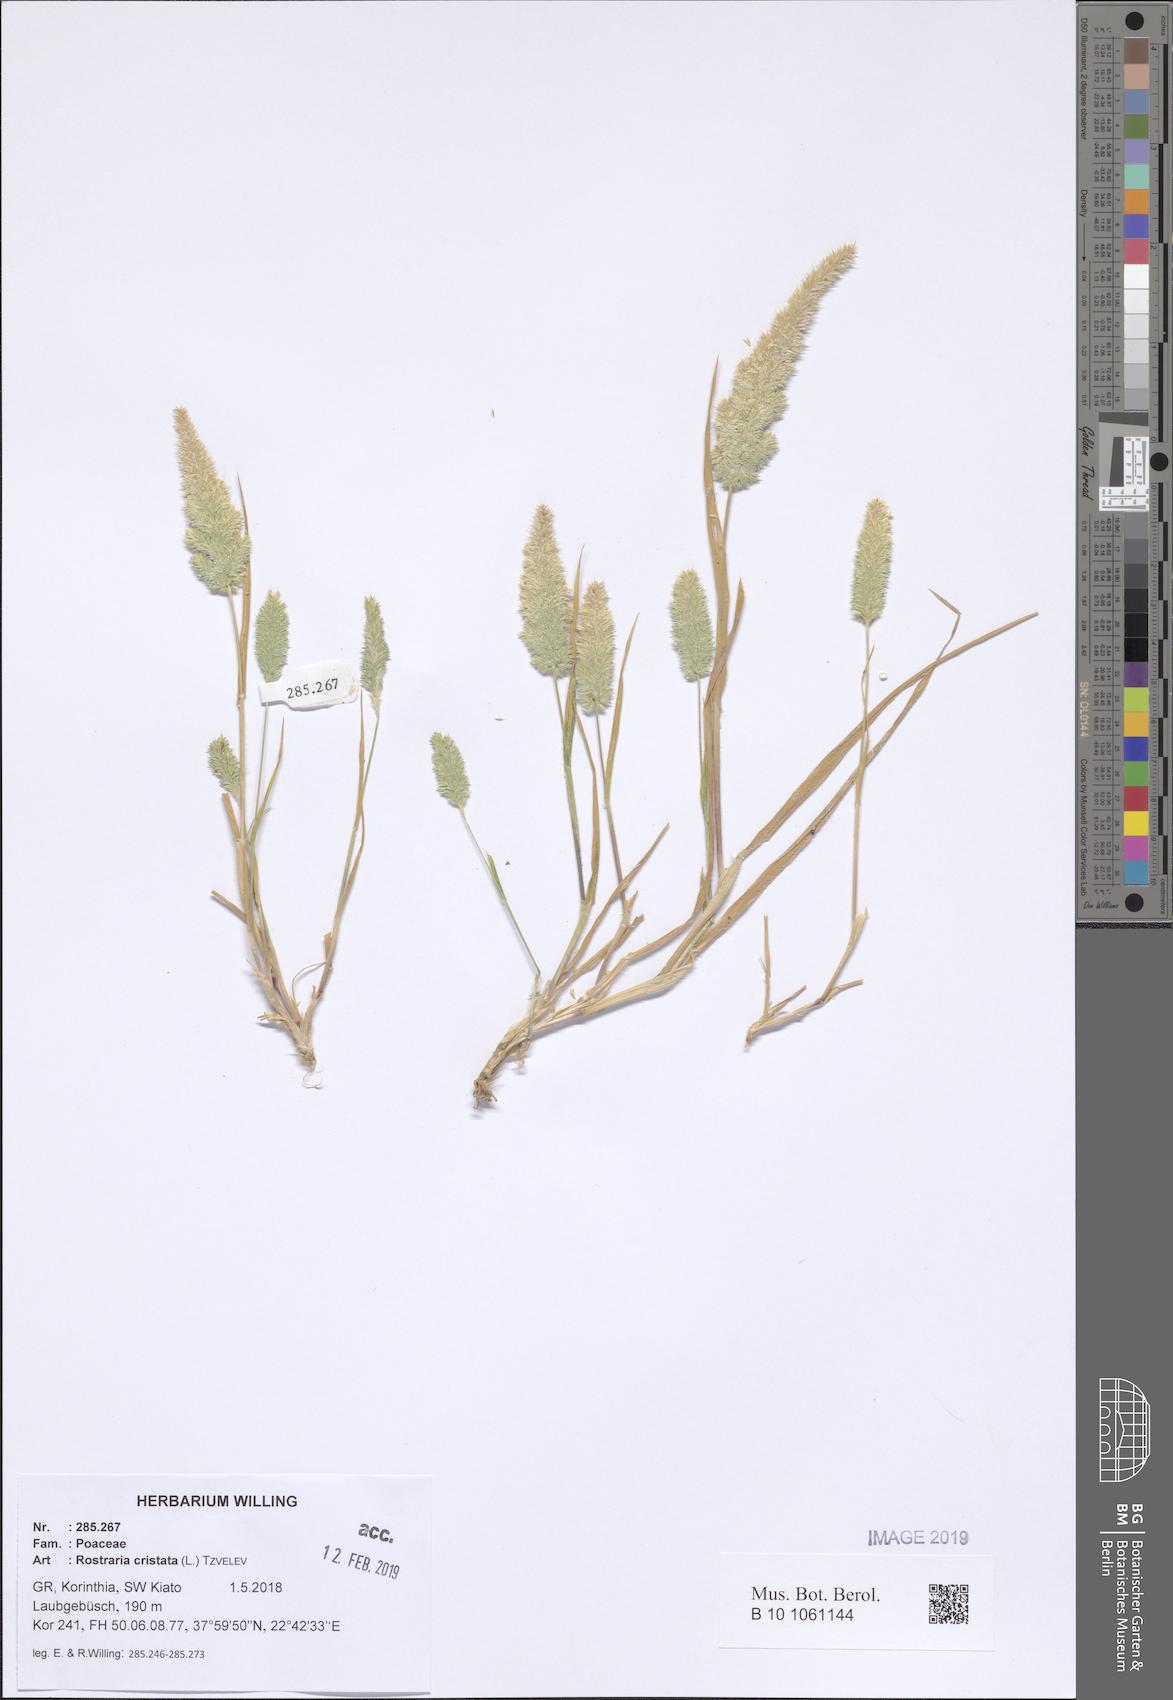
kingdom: Plantae
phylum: Tracheophyta
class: Liliopsida
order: Poales
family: Poaceae
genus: Rostraria
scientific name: Rostraria cristata
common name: Mediterranean hair-grass
